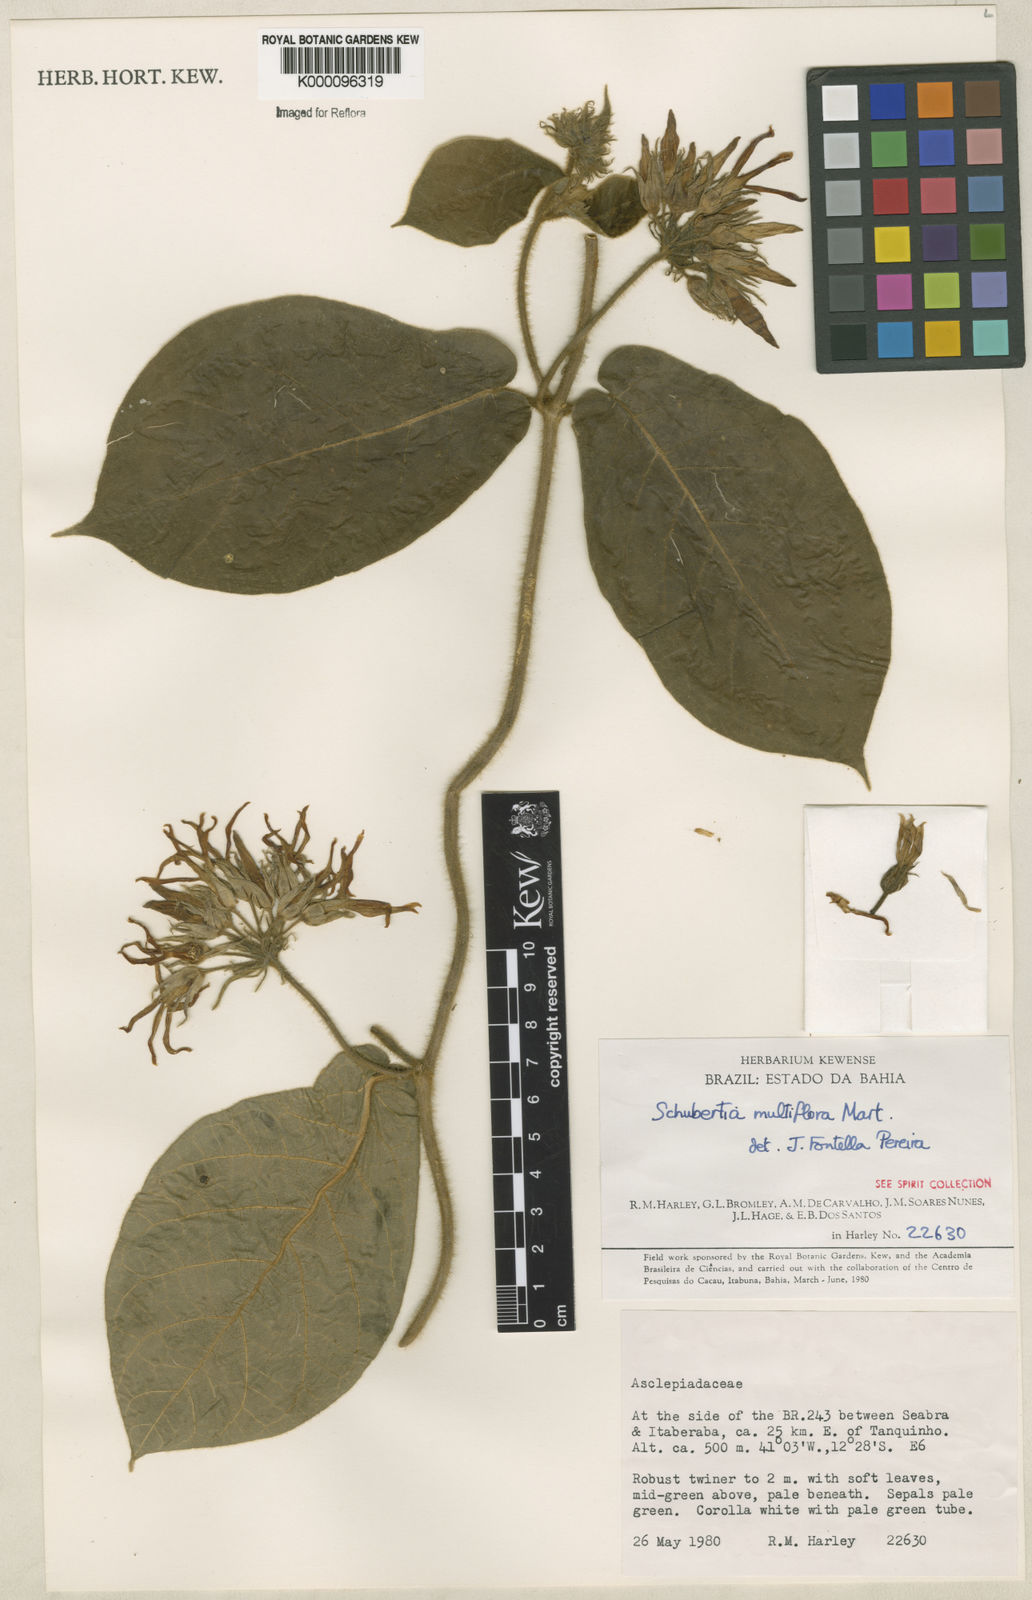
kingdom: Plantae
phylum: Tracheophyta
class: Magnoliopsida
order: Gentianales
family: Apocynaceae
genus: Schubertia
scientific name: Schubertia multiflora
